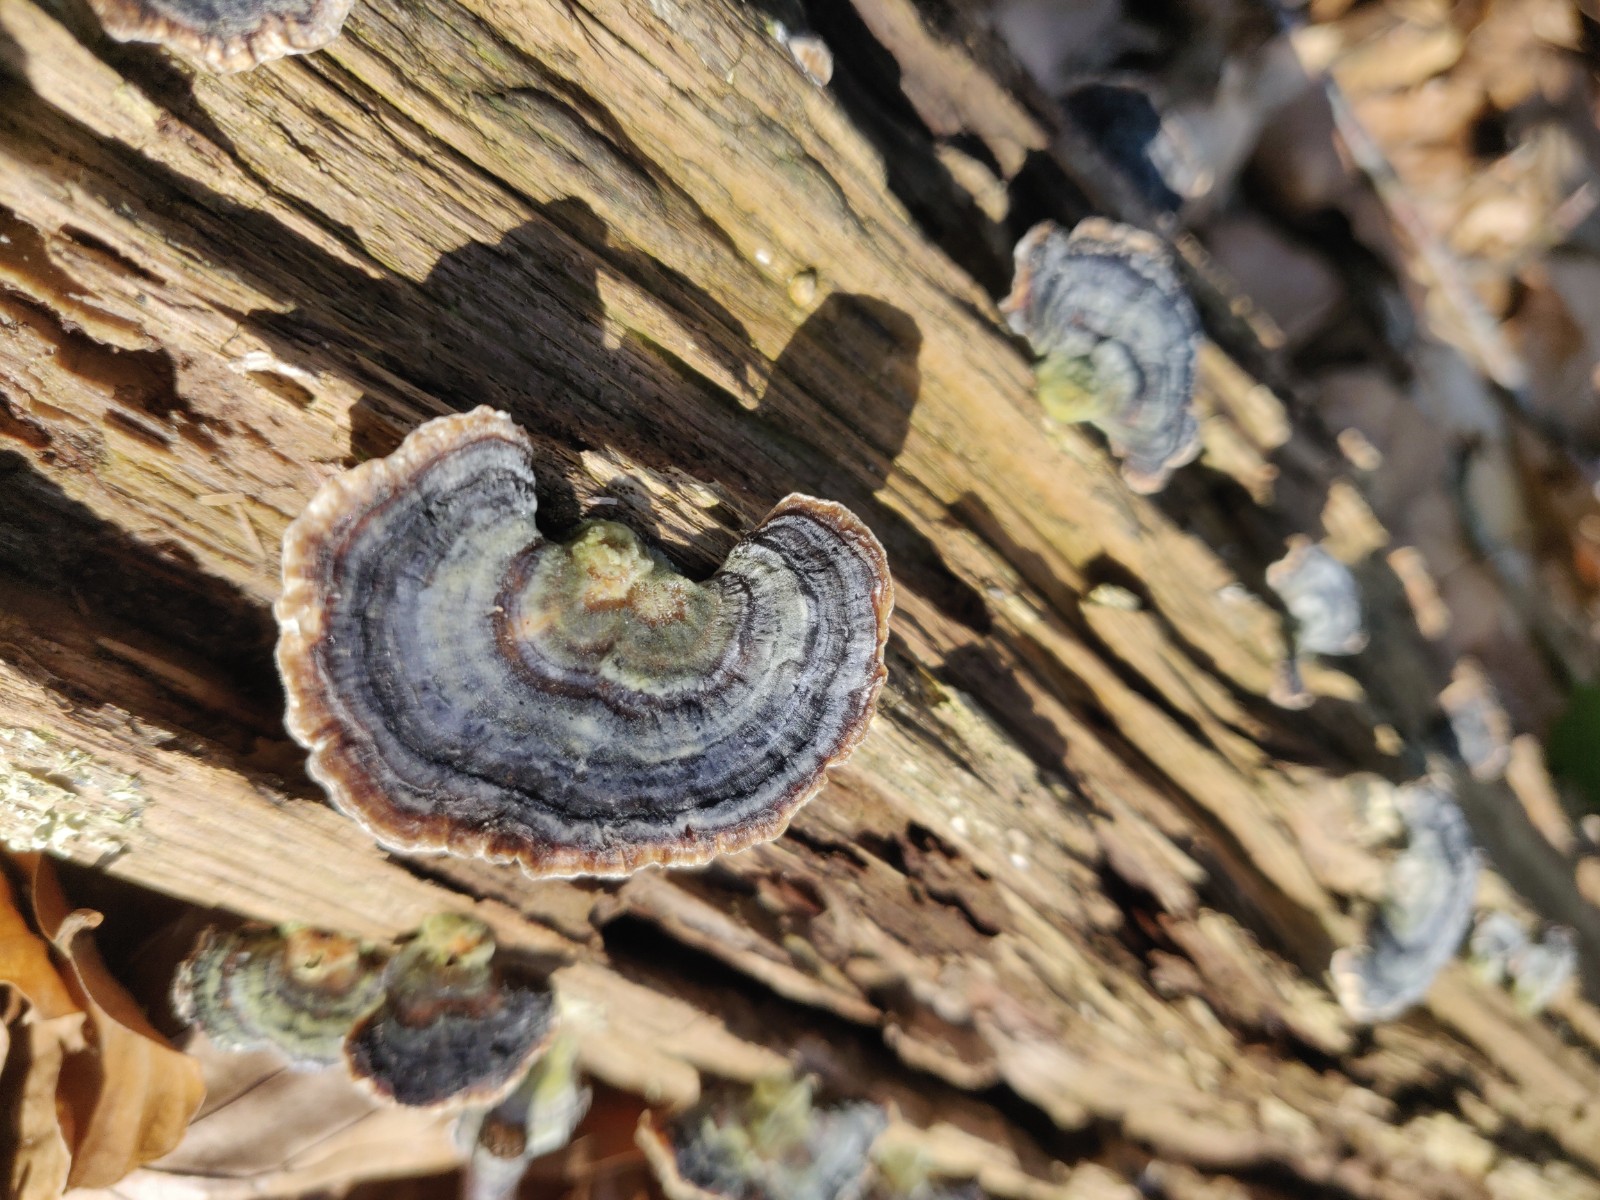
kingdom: Fungi
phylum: Basidiomycota
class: Agaricomycetes
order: Polyporales
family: Polyporaceae
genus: Trametes
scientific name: Trametes versicolor
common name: broget læderporesvamp
